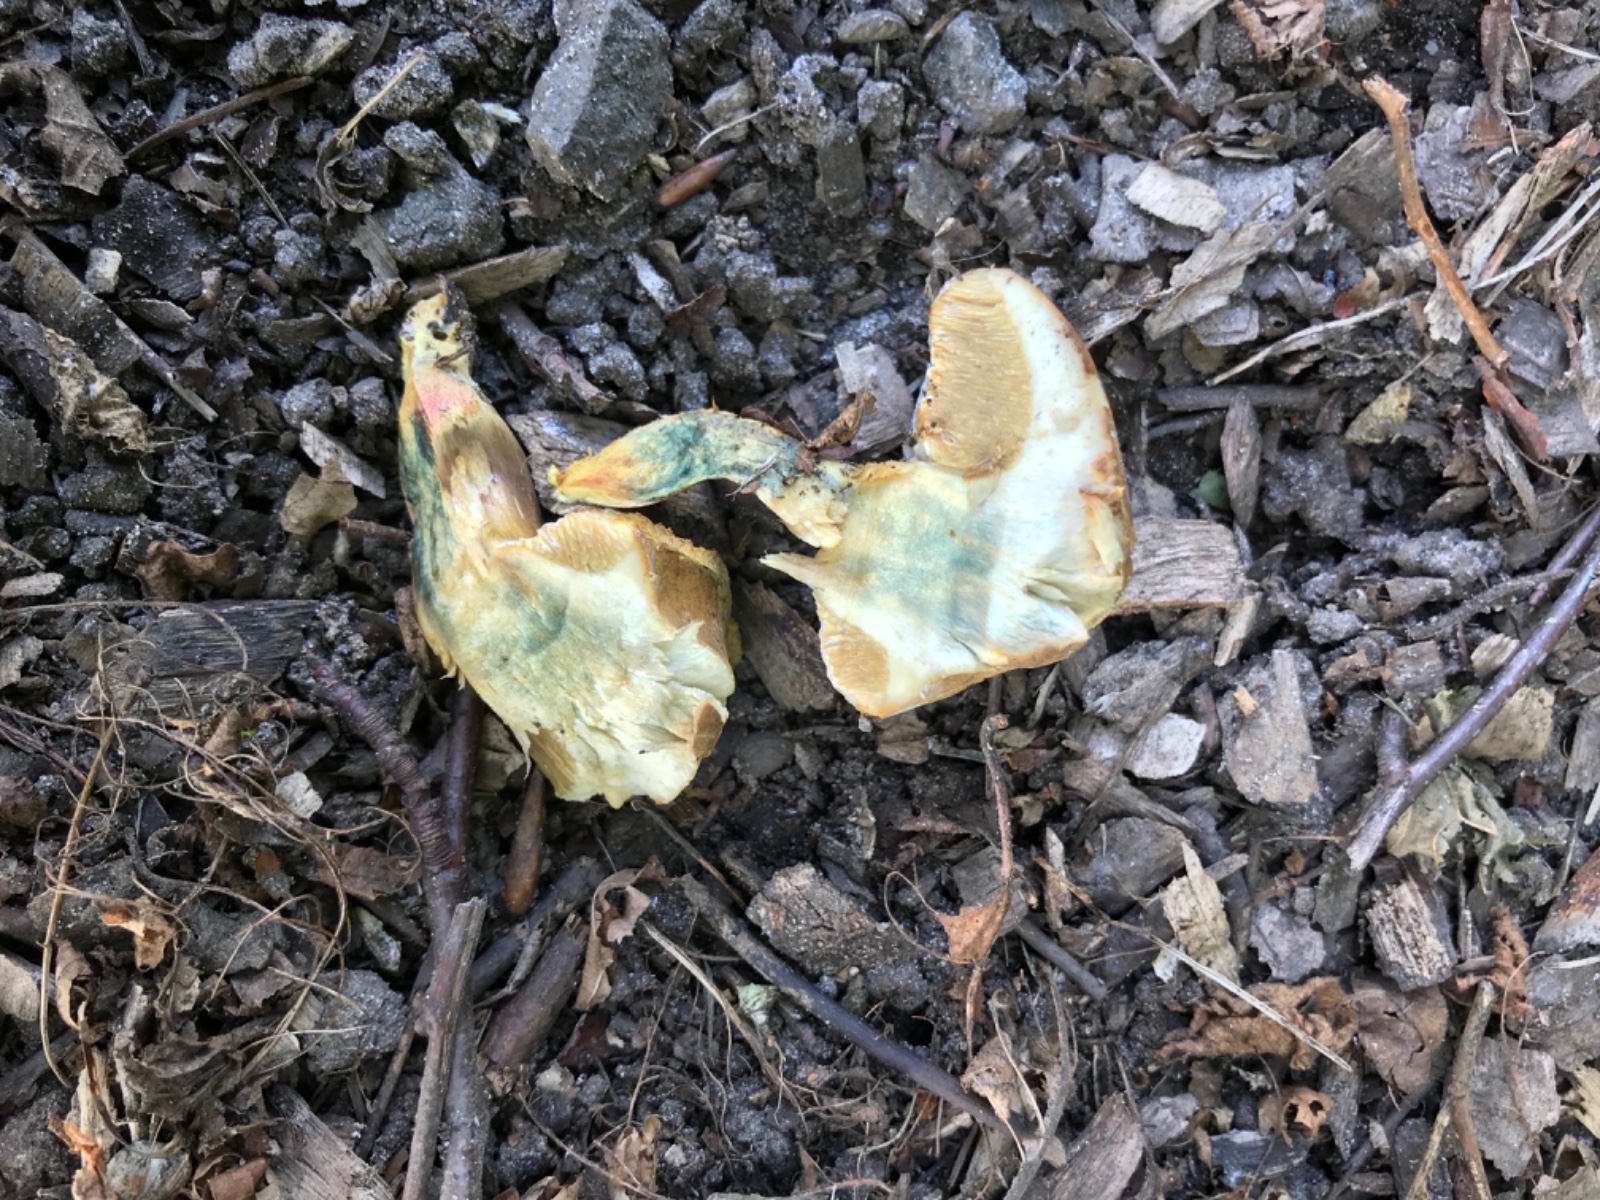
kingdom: Fungi
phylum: Basidiomycota
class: Agaricomycetes
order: Boletales
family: Boletaceae
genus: Hortiboletus
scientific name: Hortiboletus bubalinus
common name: aurora-rørhat
